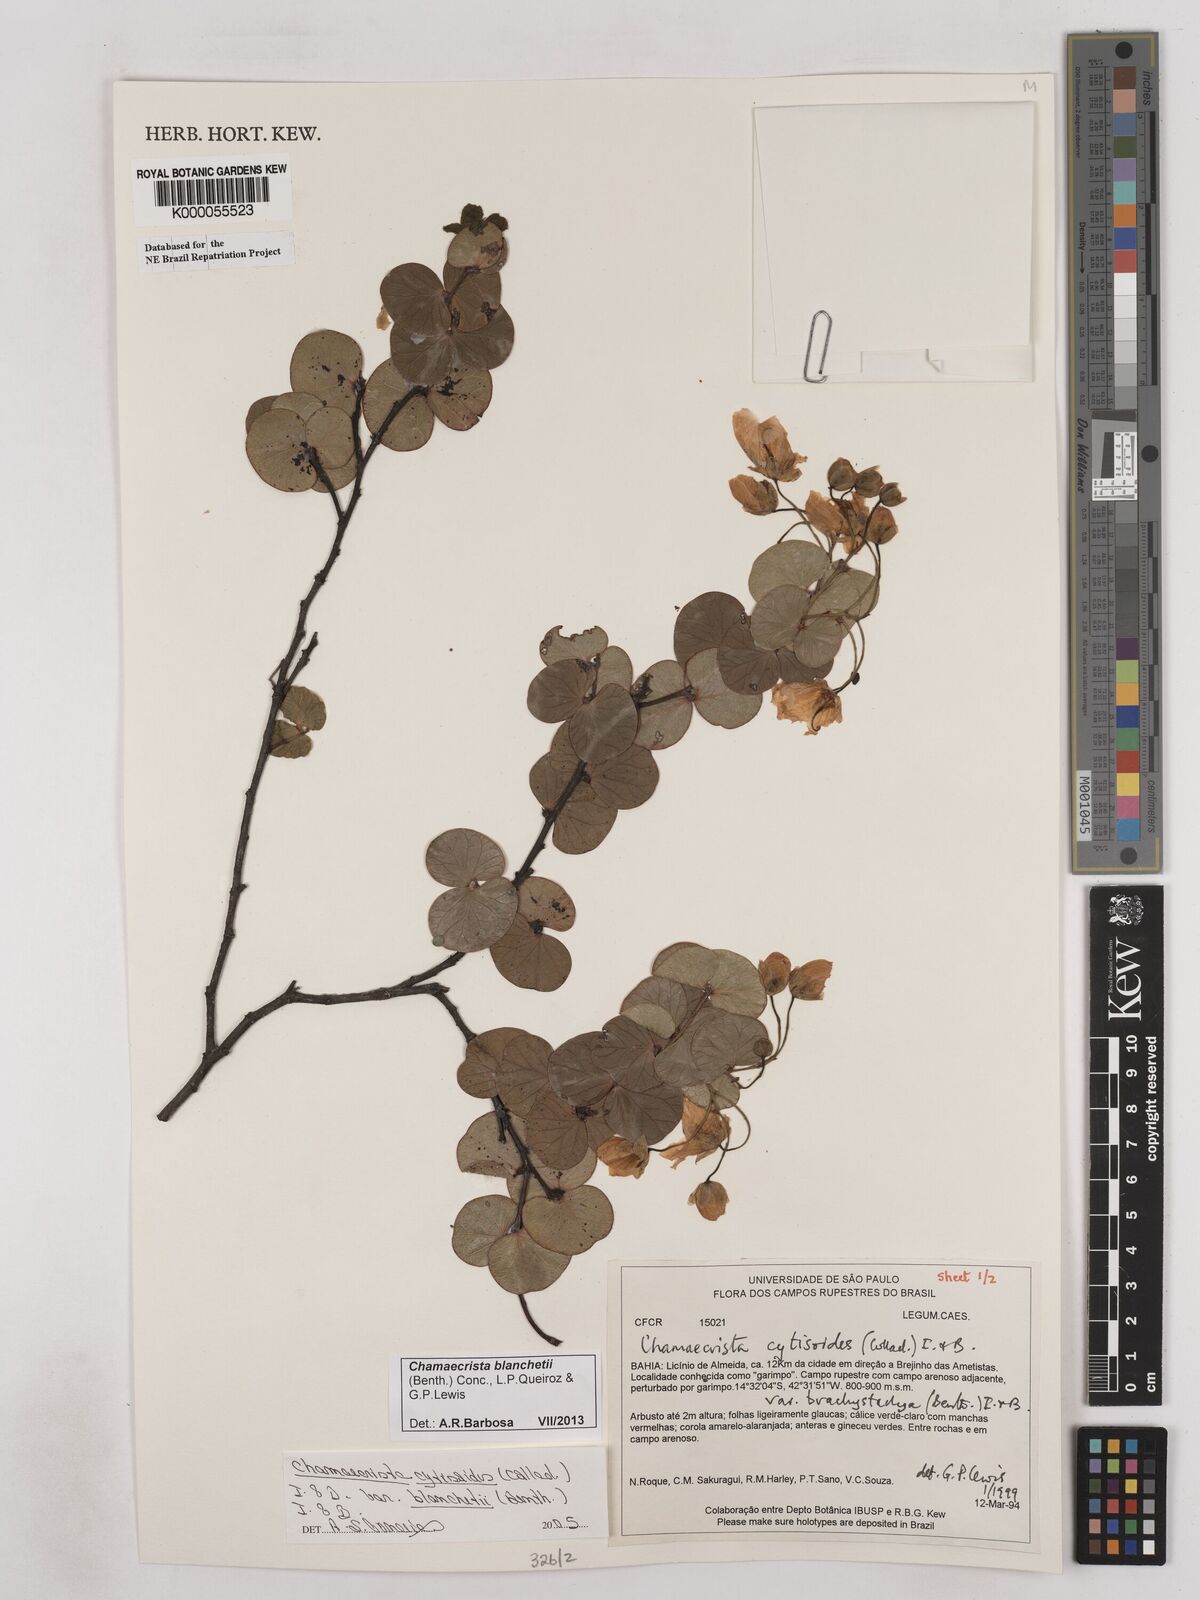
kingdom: Plantae
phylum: Tracheophyta
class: Magnoliopsida
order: Fabales
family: Fabaceae
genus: Chamaecrista
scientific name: Chamaecrista cytisoides
